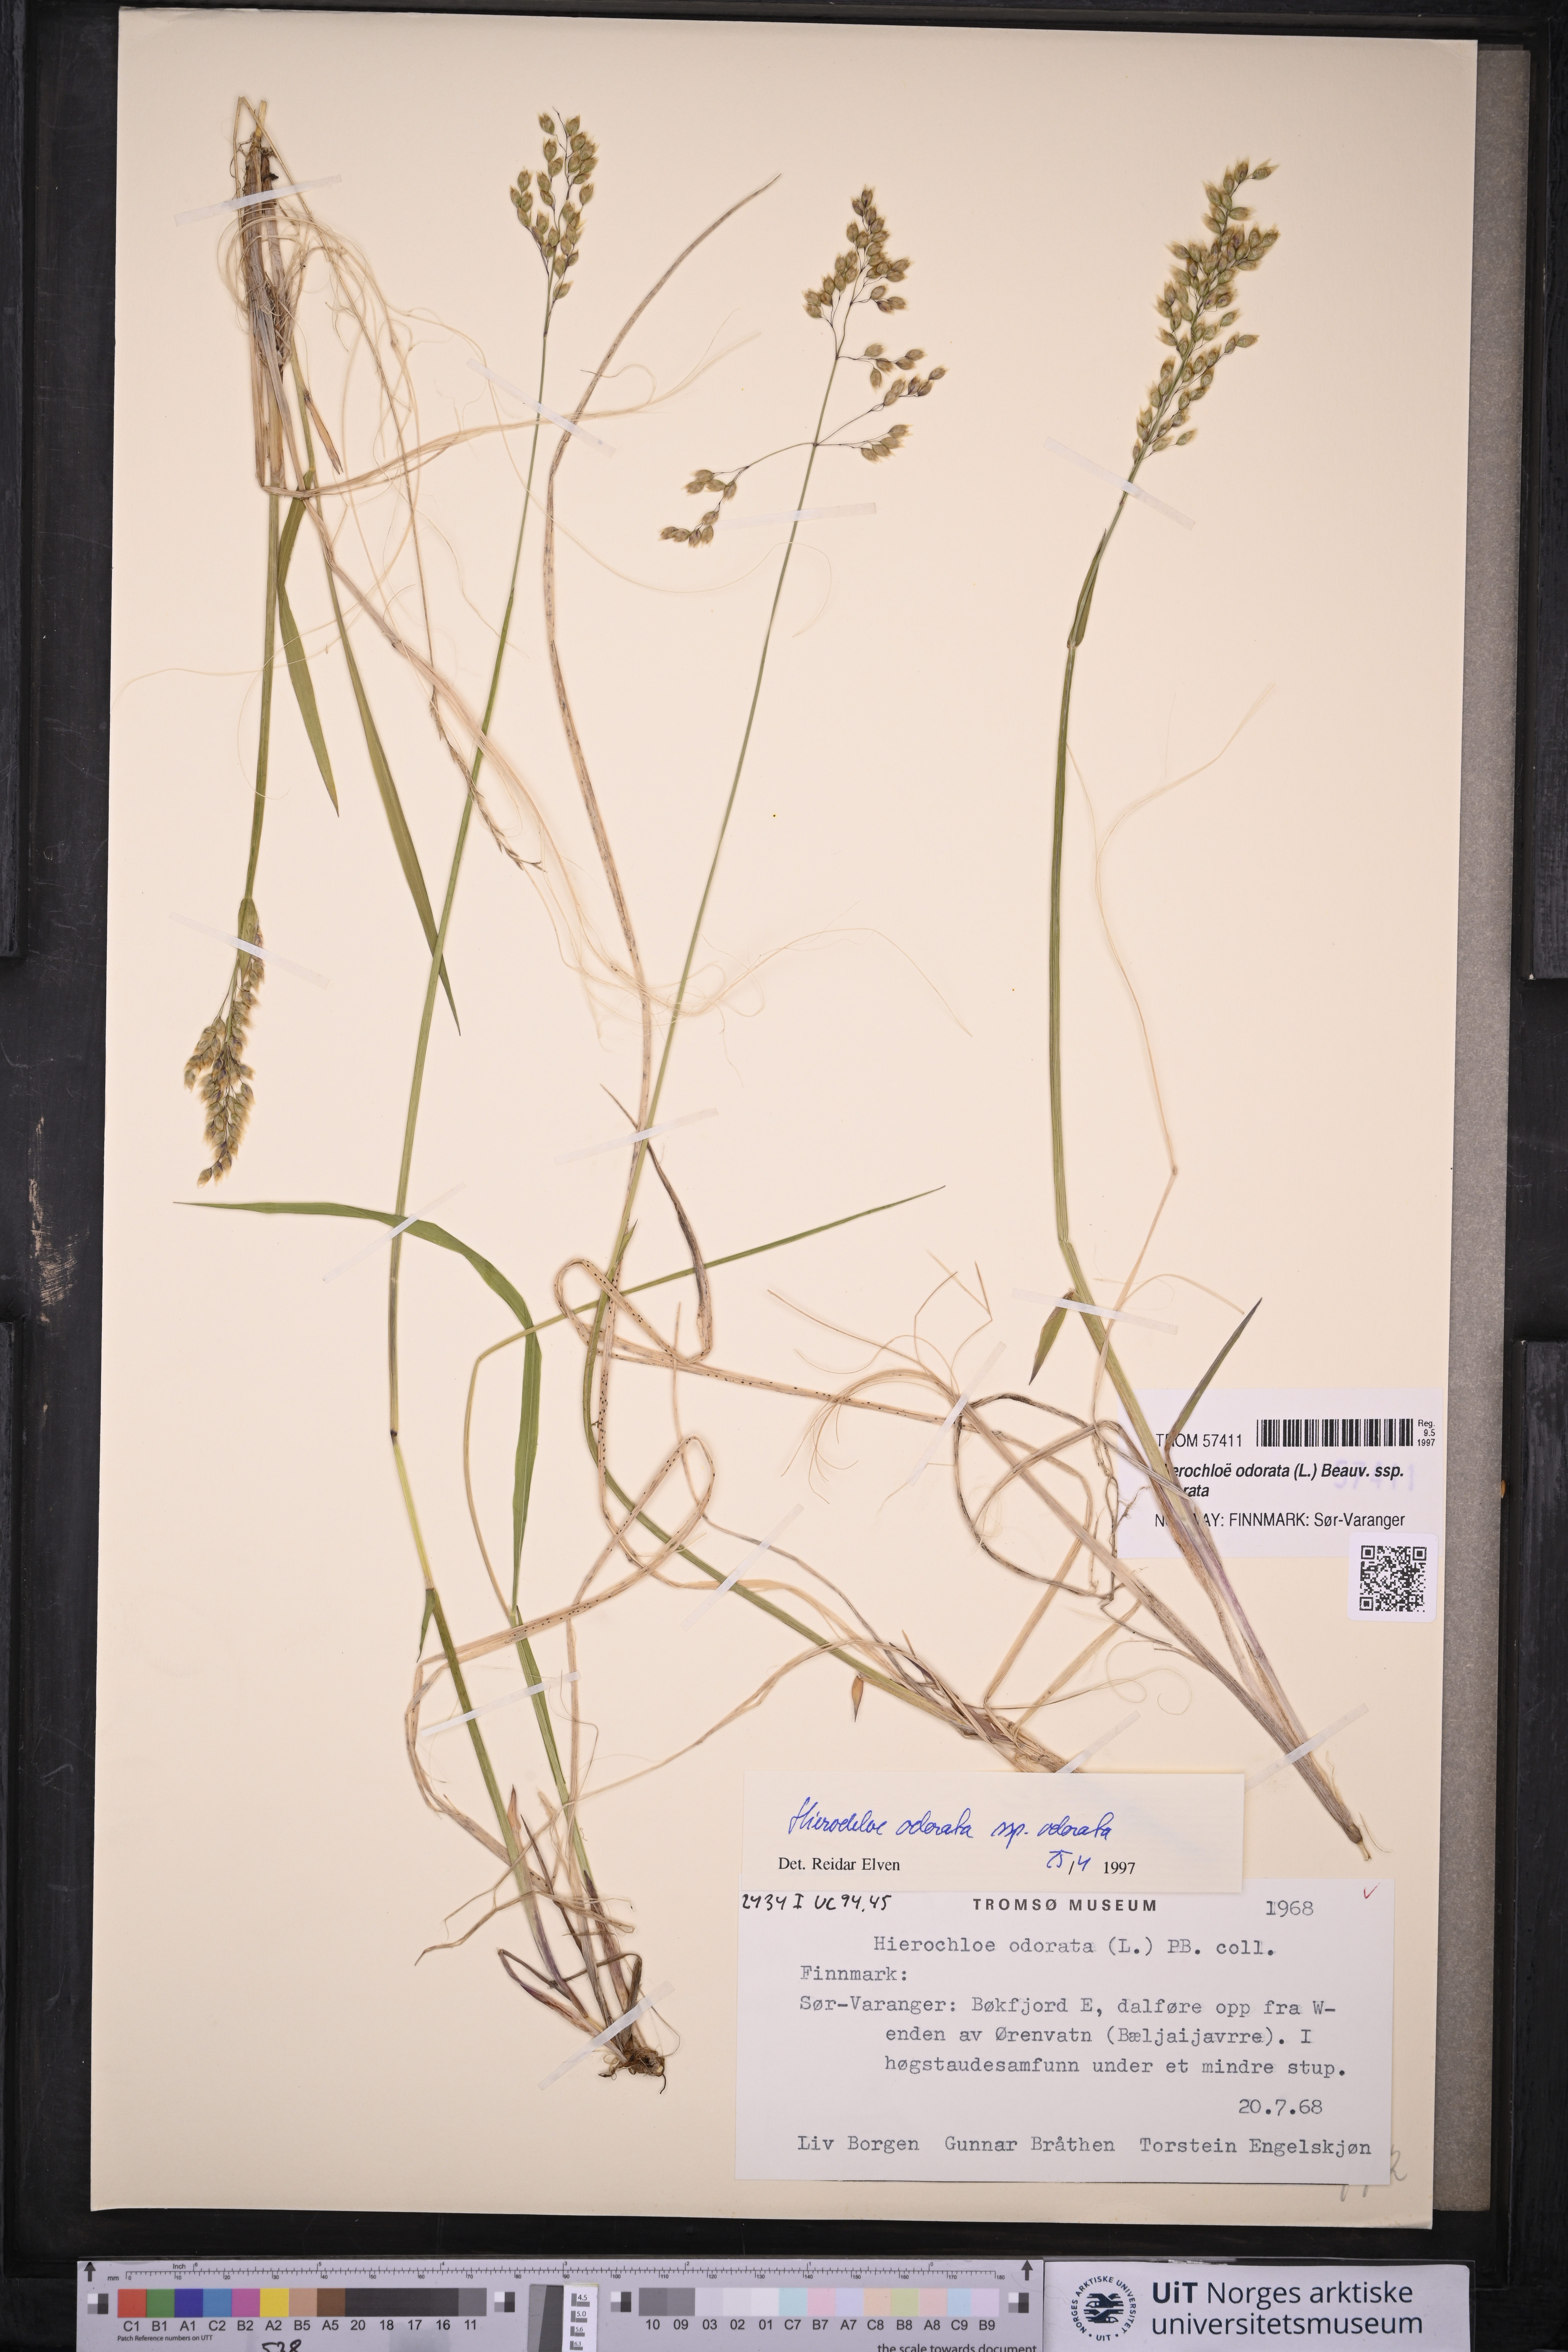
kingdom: Plantae
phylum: Tracheophyta
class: Liliopsida
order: Poales
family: Poaceae
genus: Anthoxanthum
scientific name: Anthoxanthum nitens
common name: Holy grass
